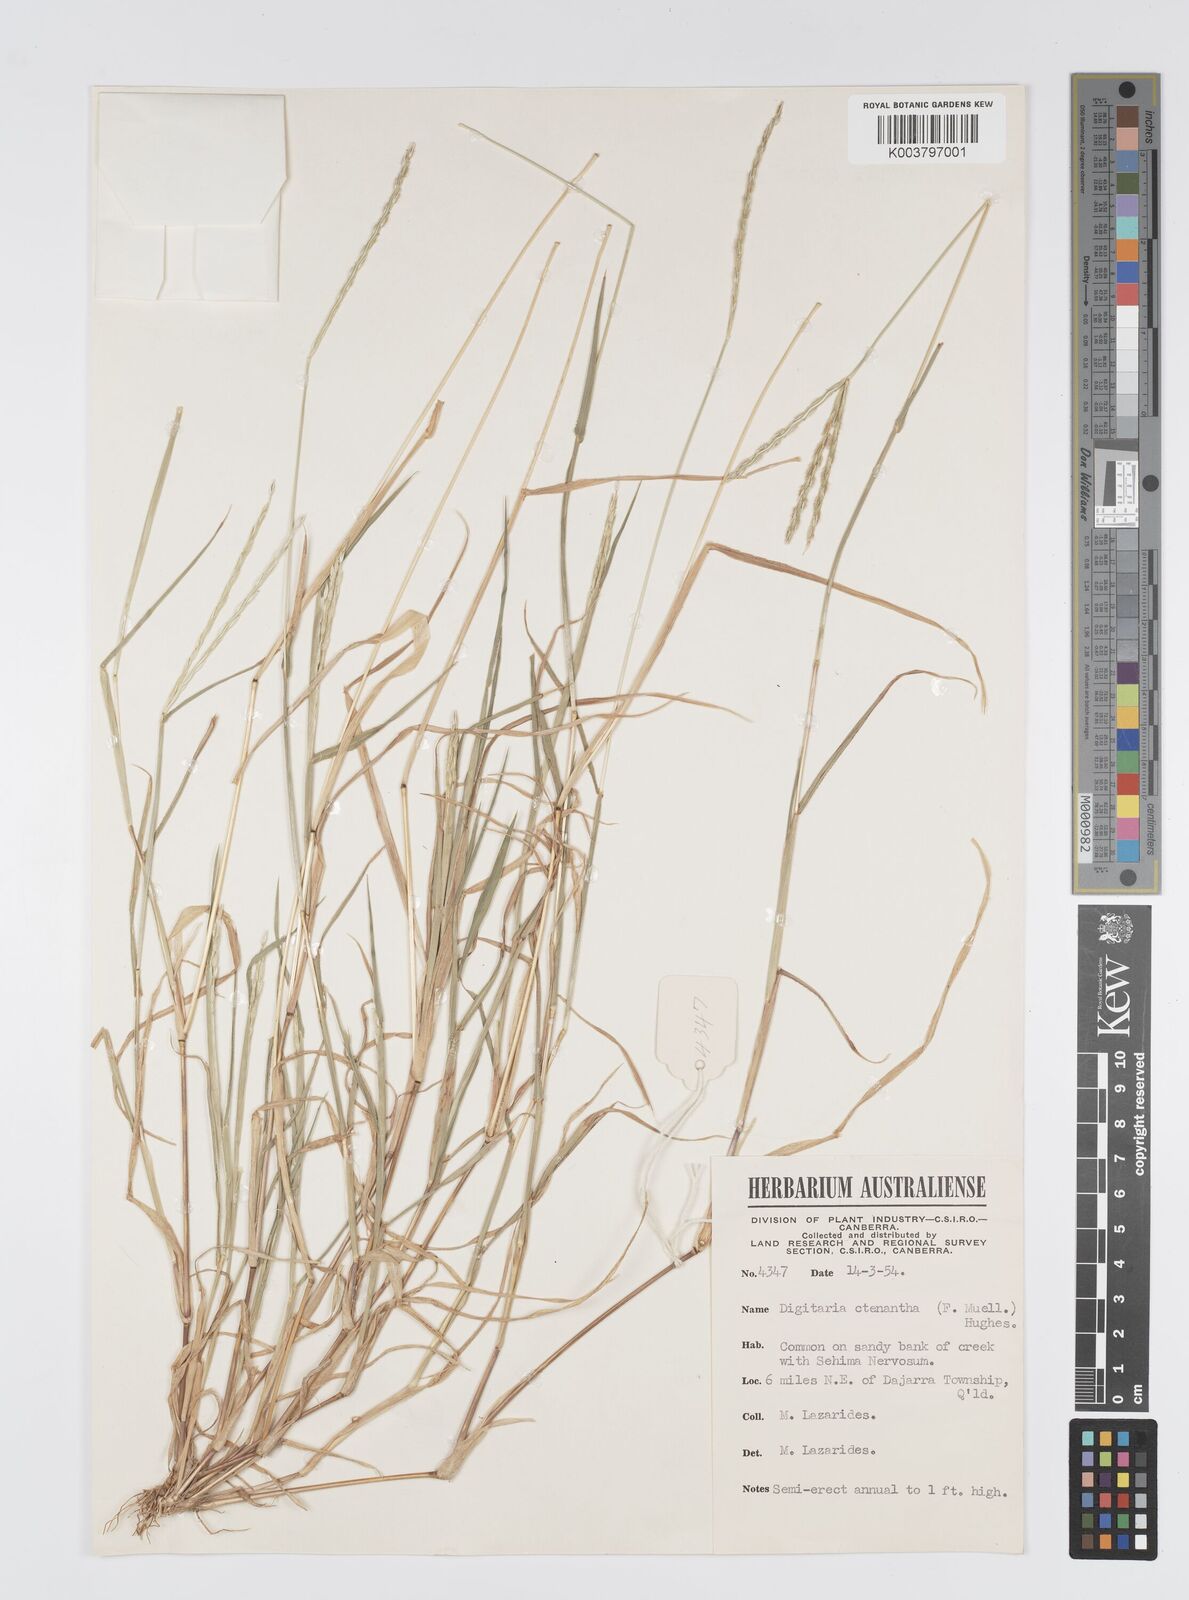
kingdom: Plantae
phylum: Tracheophyta
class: Liliopsida
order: Poales
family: Poaceae
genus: Digitaria
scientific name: Digitaria ctenantha
